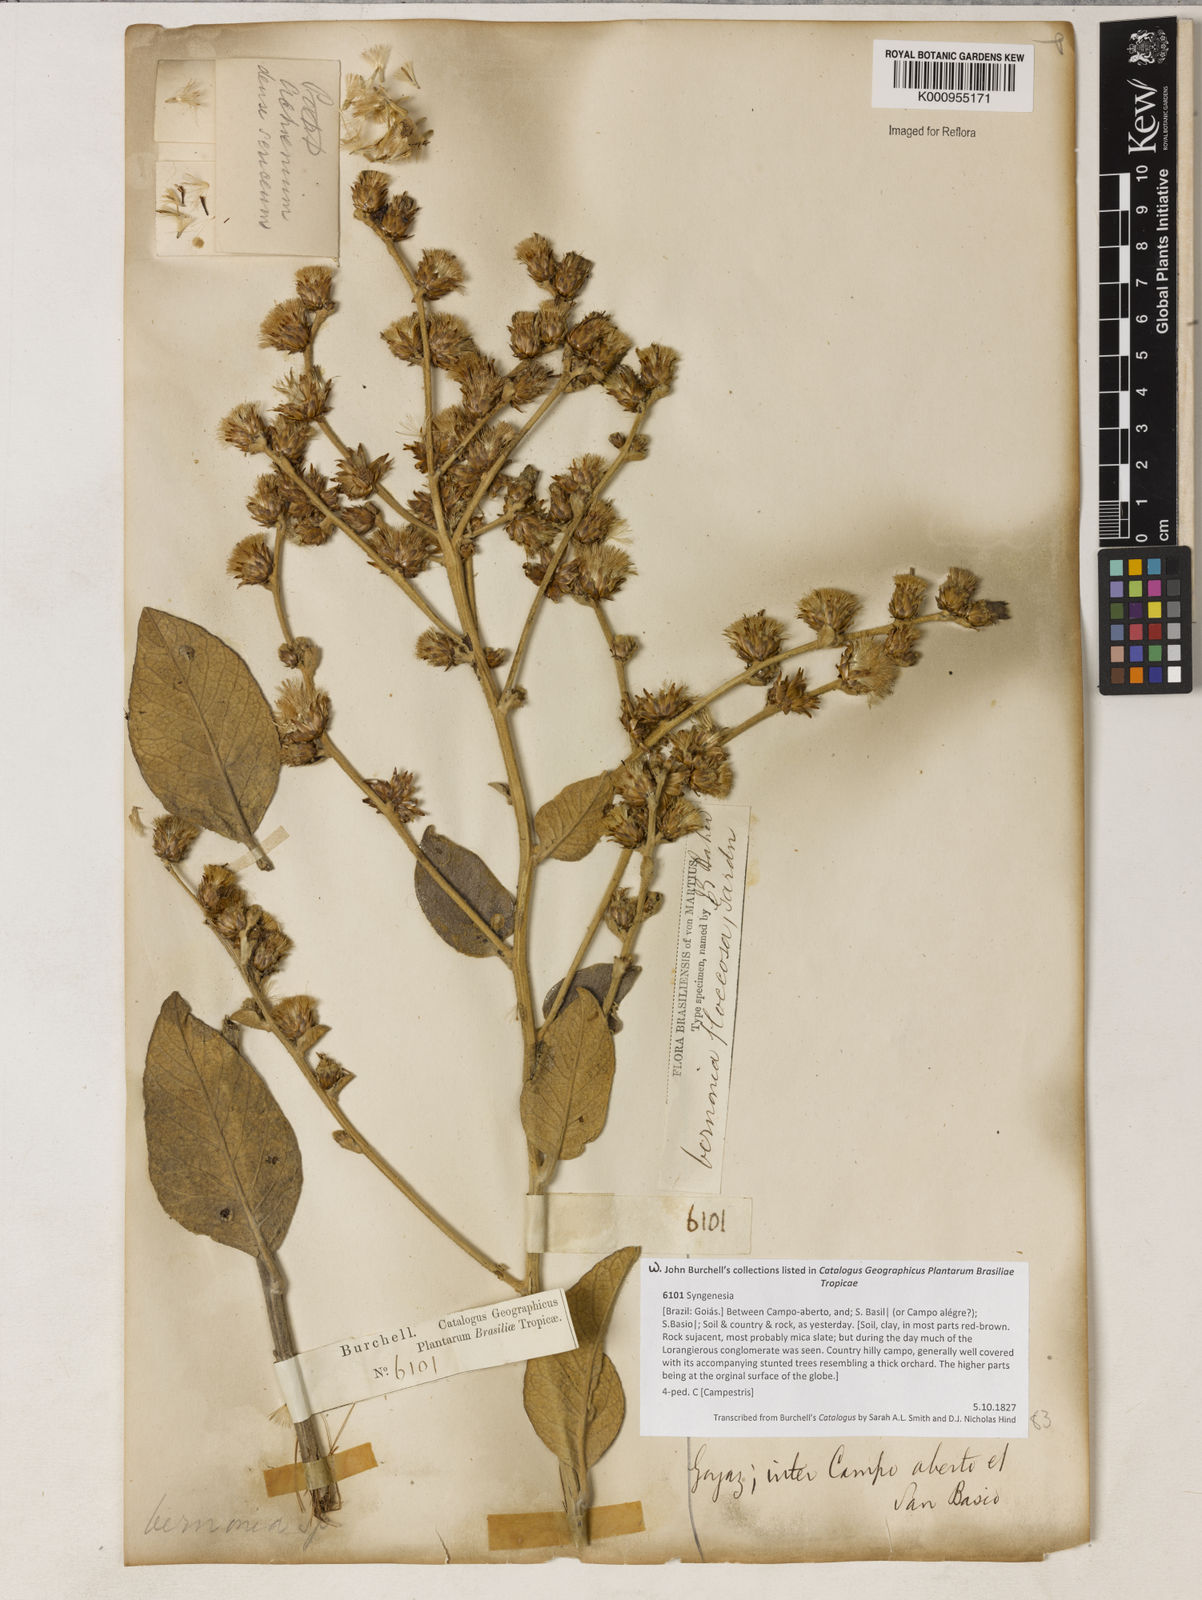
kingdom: Plantae
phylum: Tracheophyta
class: Magnoliopsida
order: Asterales
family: Asteraceae
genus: Lessingianthus
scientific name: Lessingianthus floccosus
